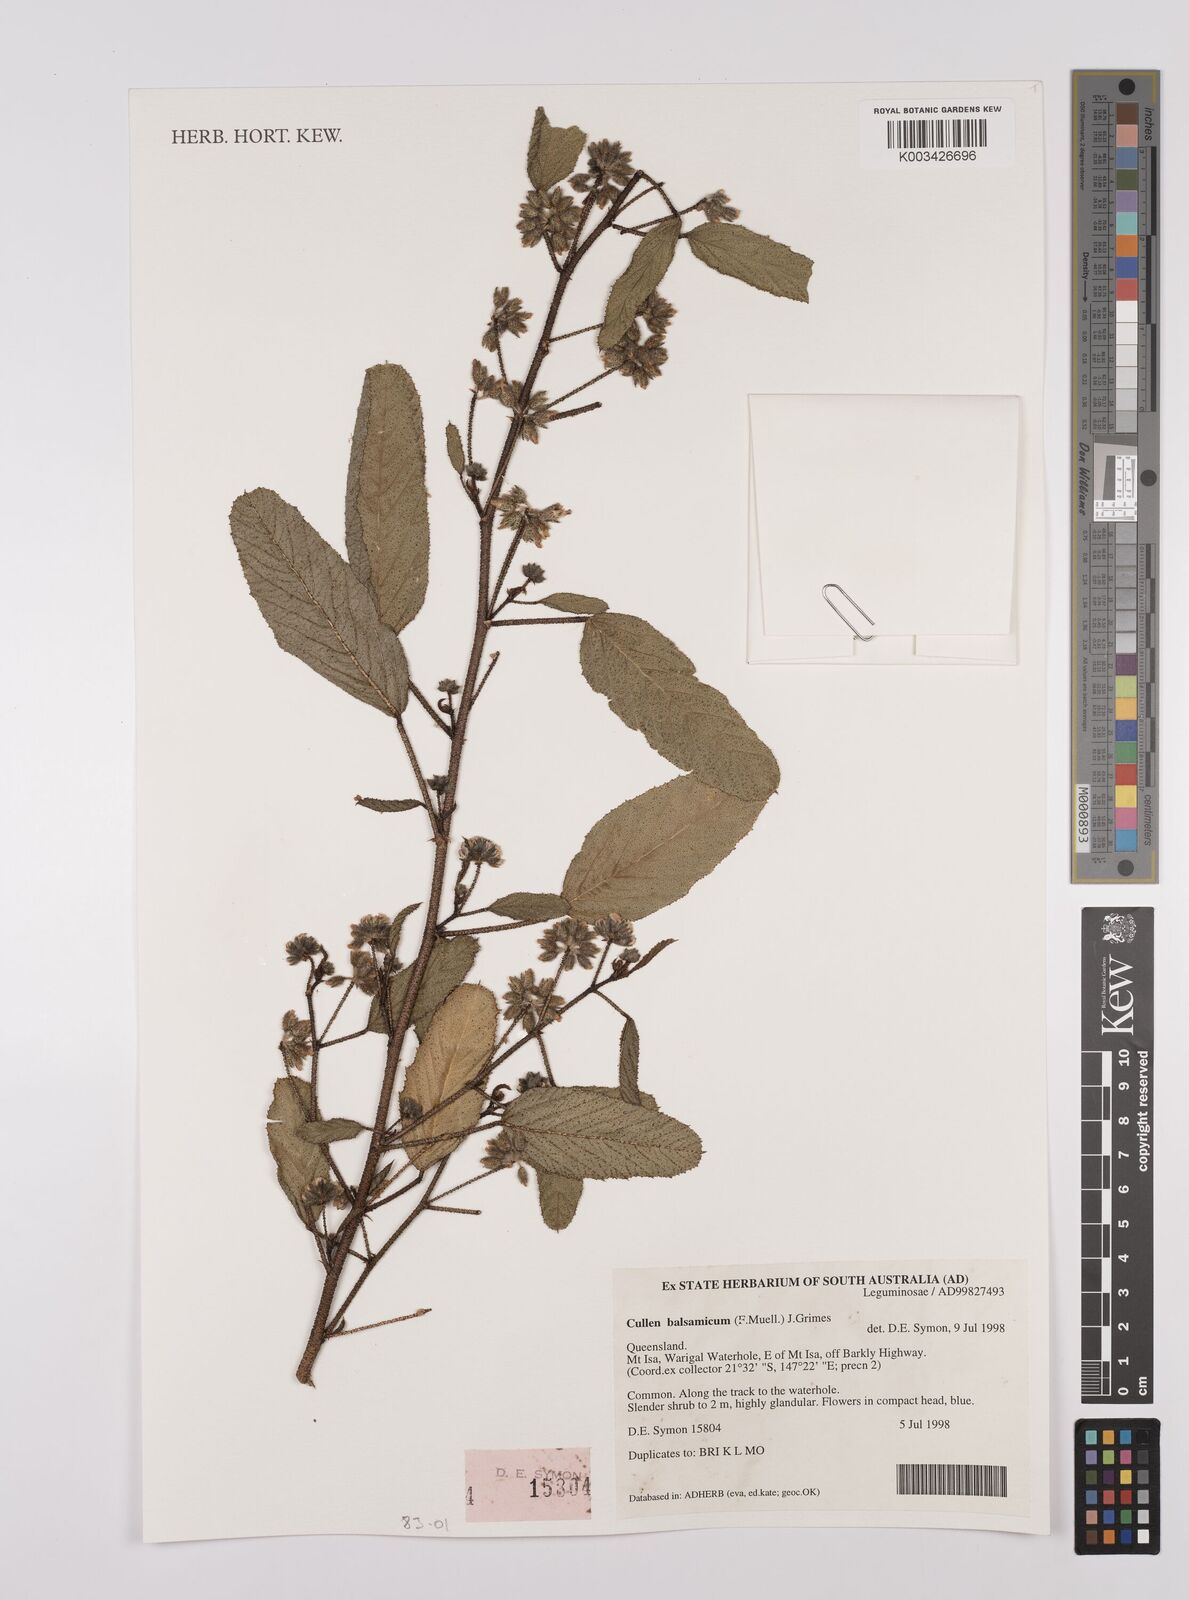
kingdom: Plantae
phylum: Tracheophyta
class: Magnoliopsida
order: Fabales
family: Fabaceae
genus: Cullen
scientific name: Cullen balsamicum
